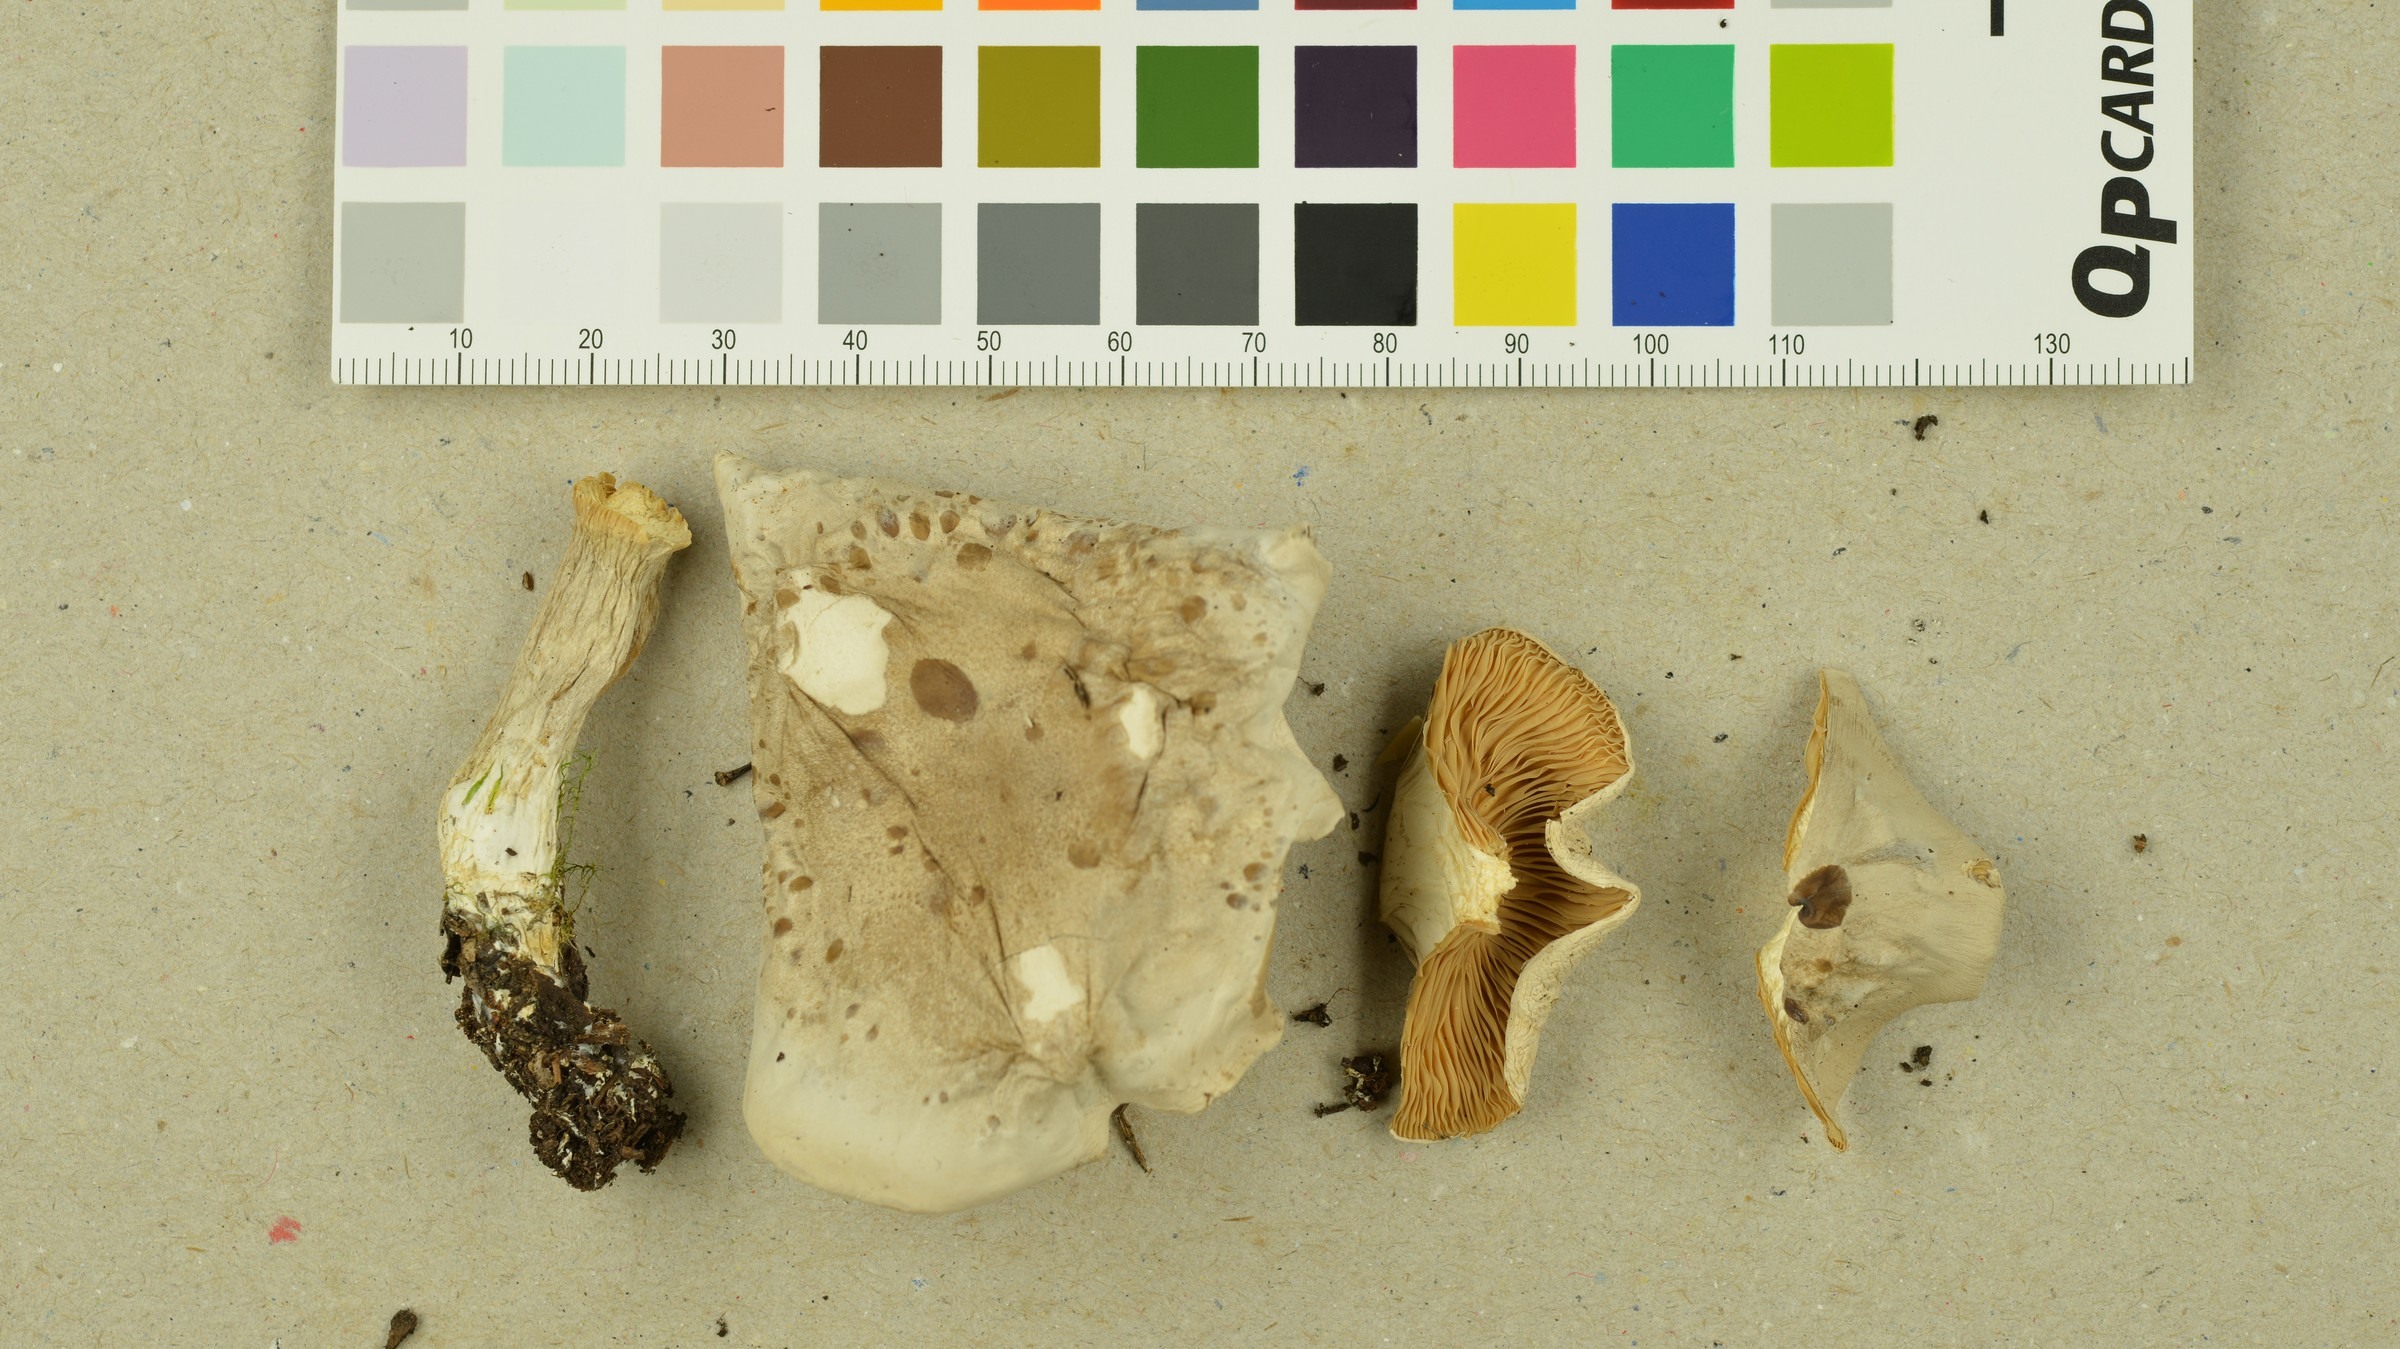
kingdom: Fungi
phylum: Basidiomycota
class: Agaricomycetes
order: Agaricales
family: Entolomataceae
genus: Clitopilus
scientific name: Clitopilus paxilloides
